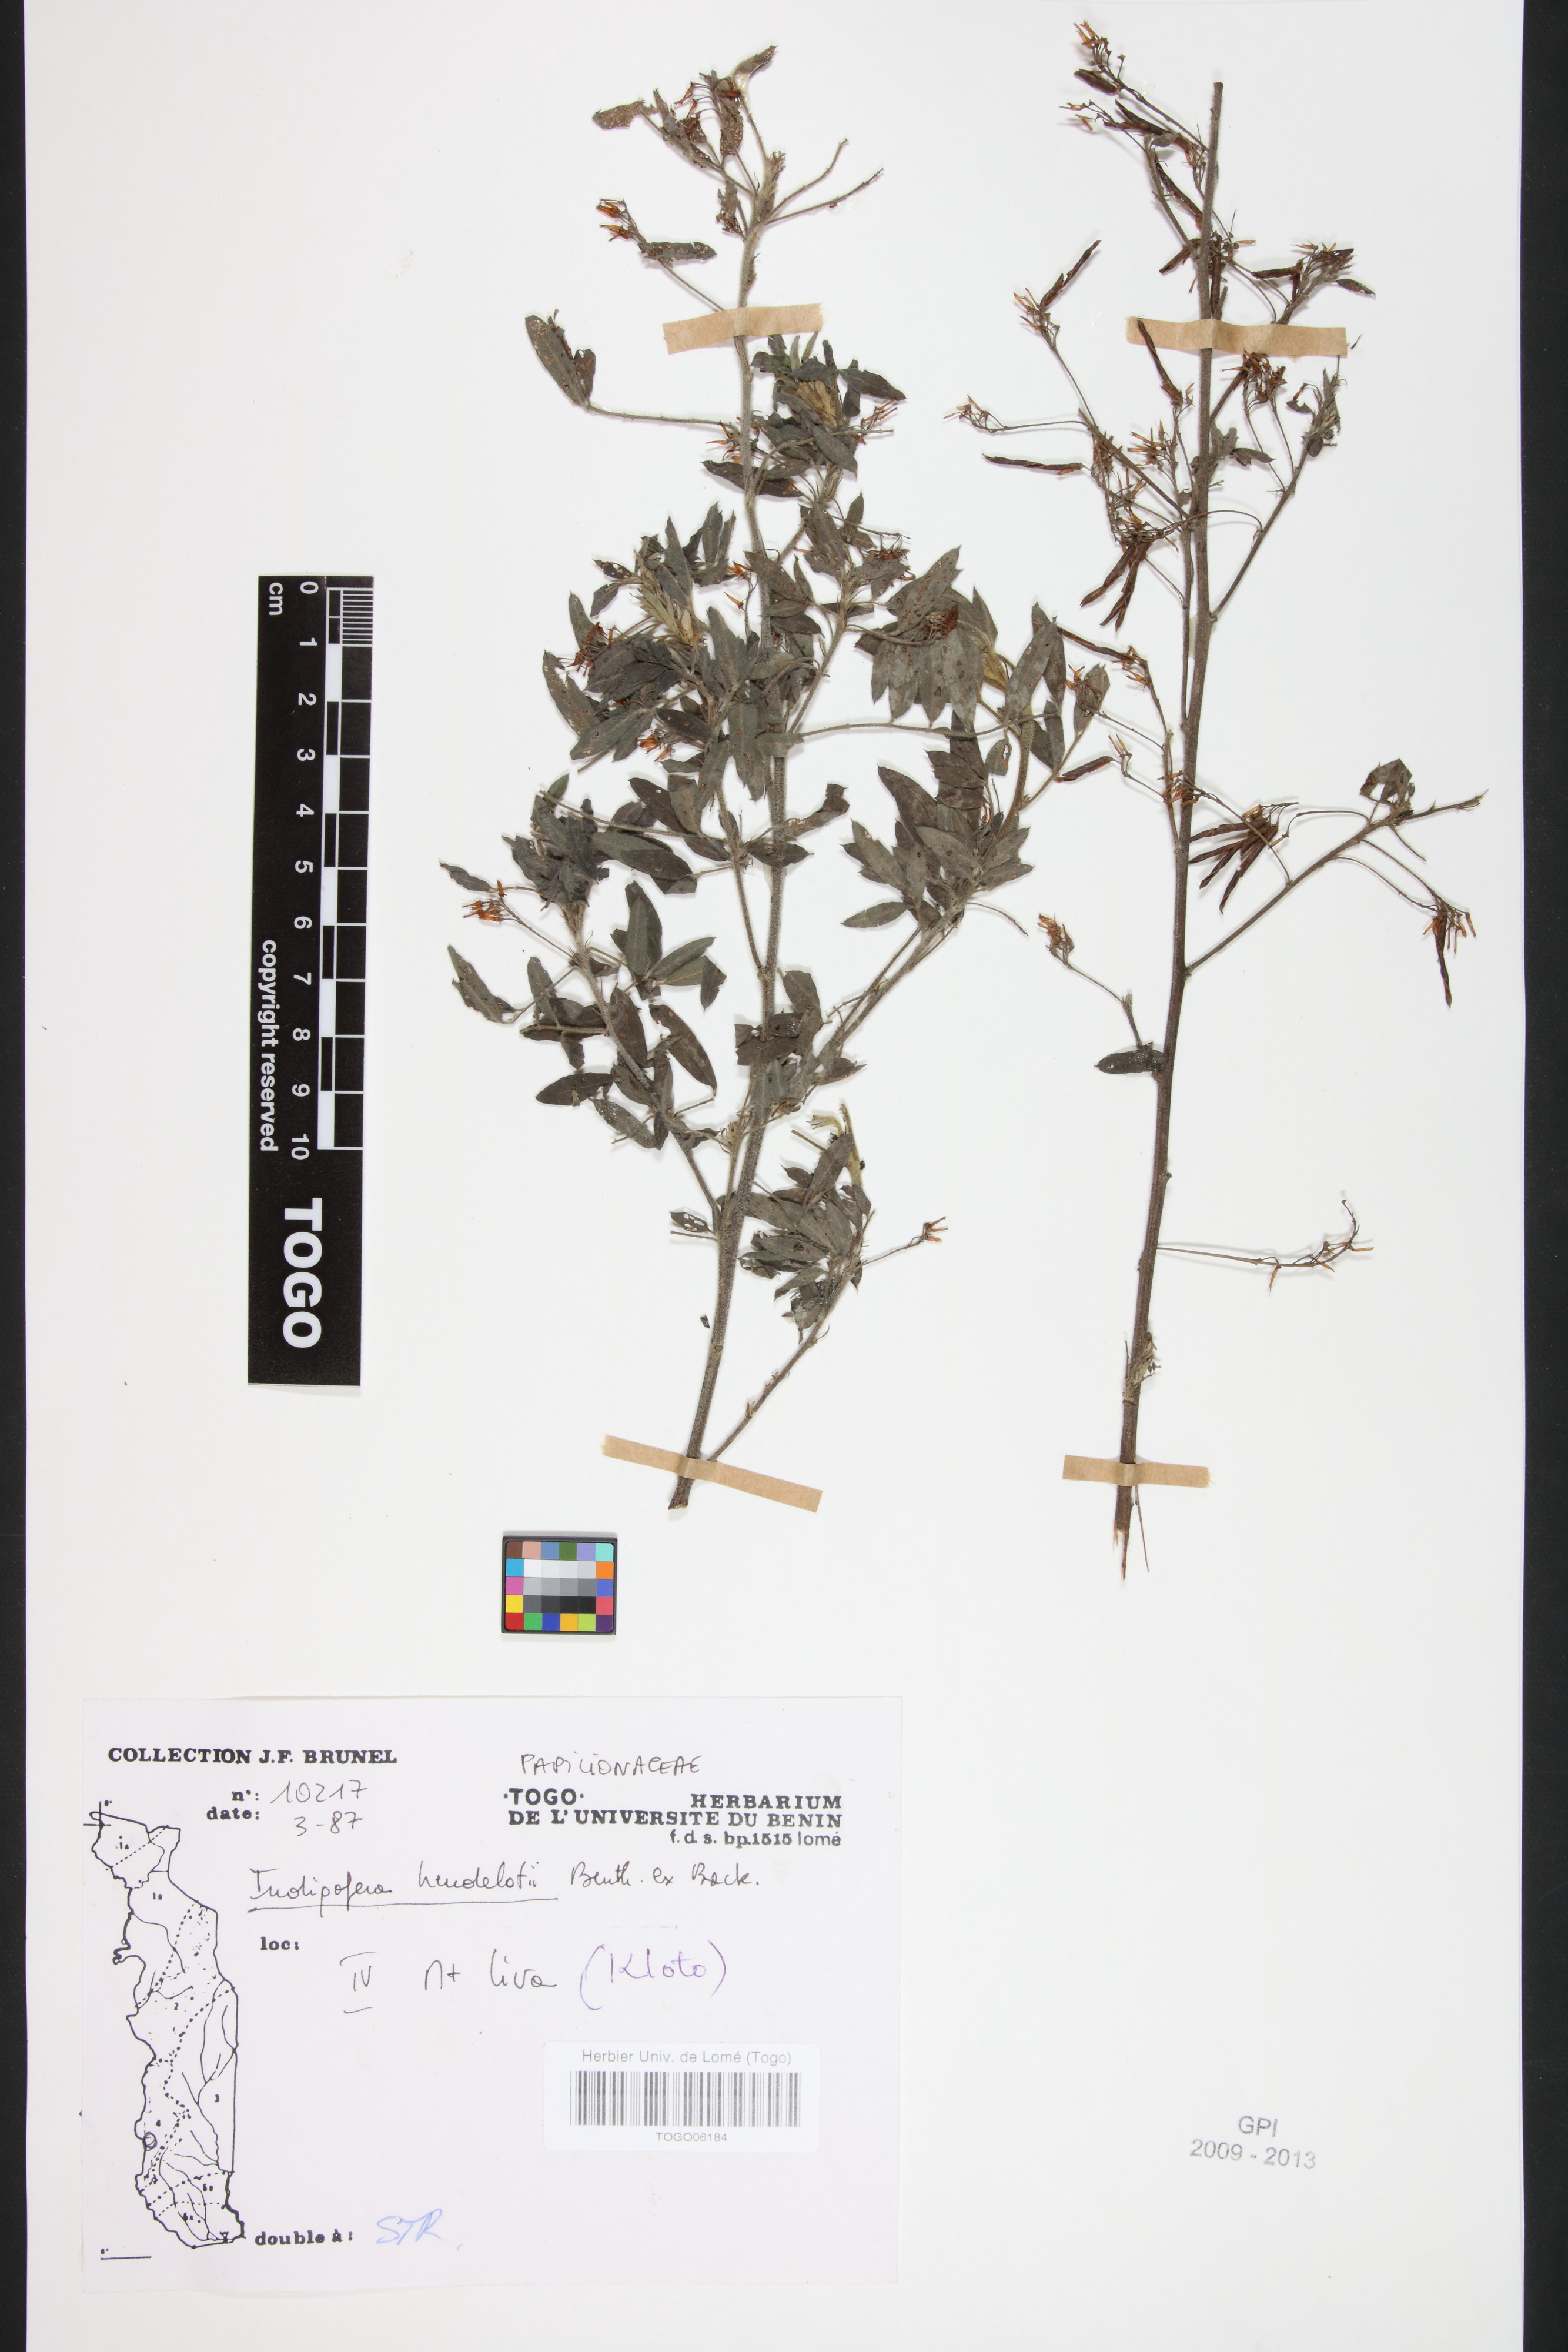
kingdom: Plantae
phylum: Tracheophyta
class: Magnoliopsida
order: Fabales
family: Fabaceae
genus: Indigofera
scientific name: Indigofera heudelotii
